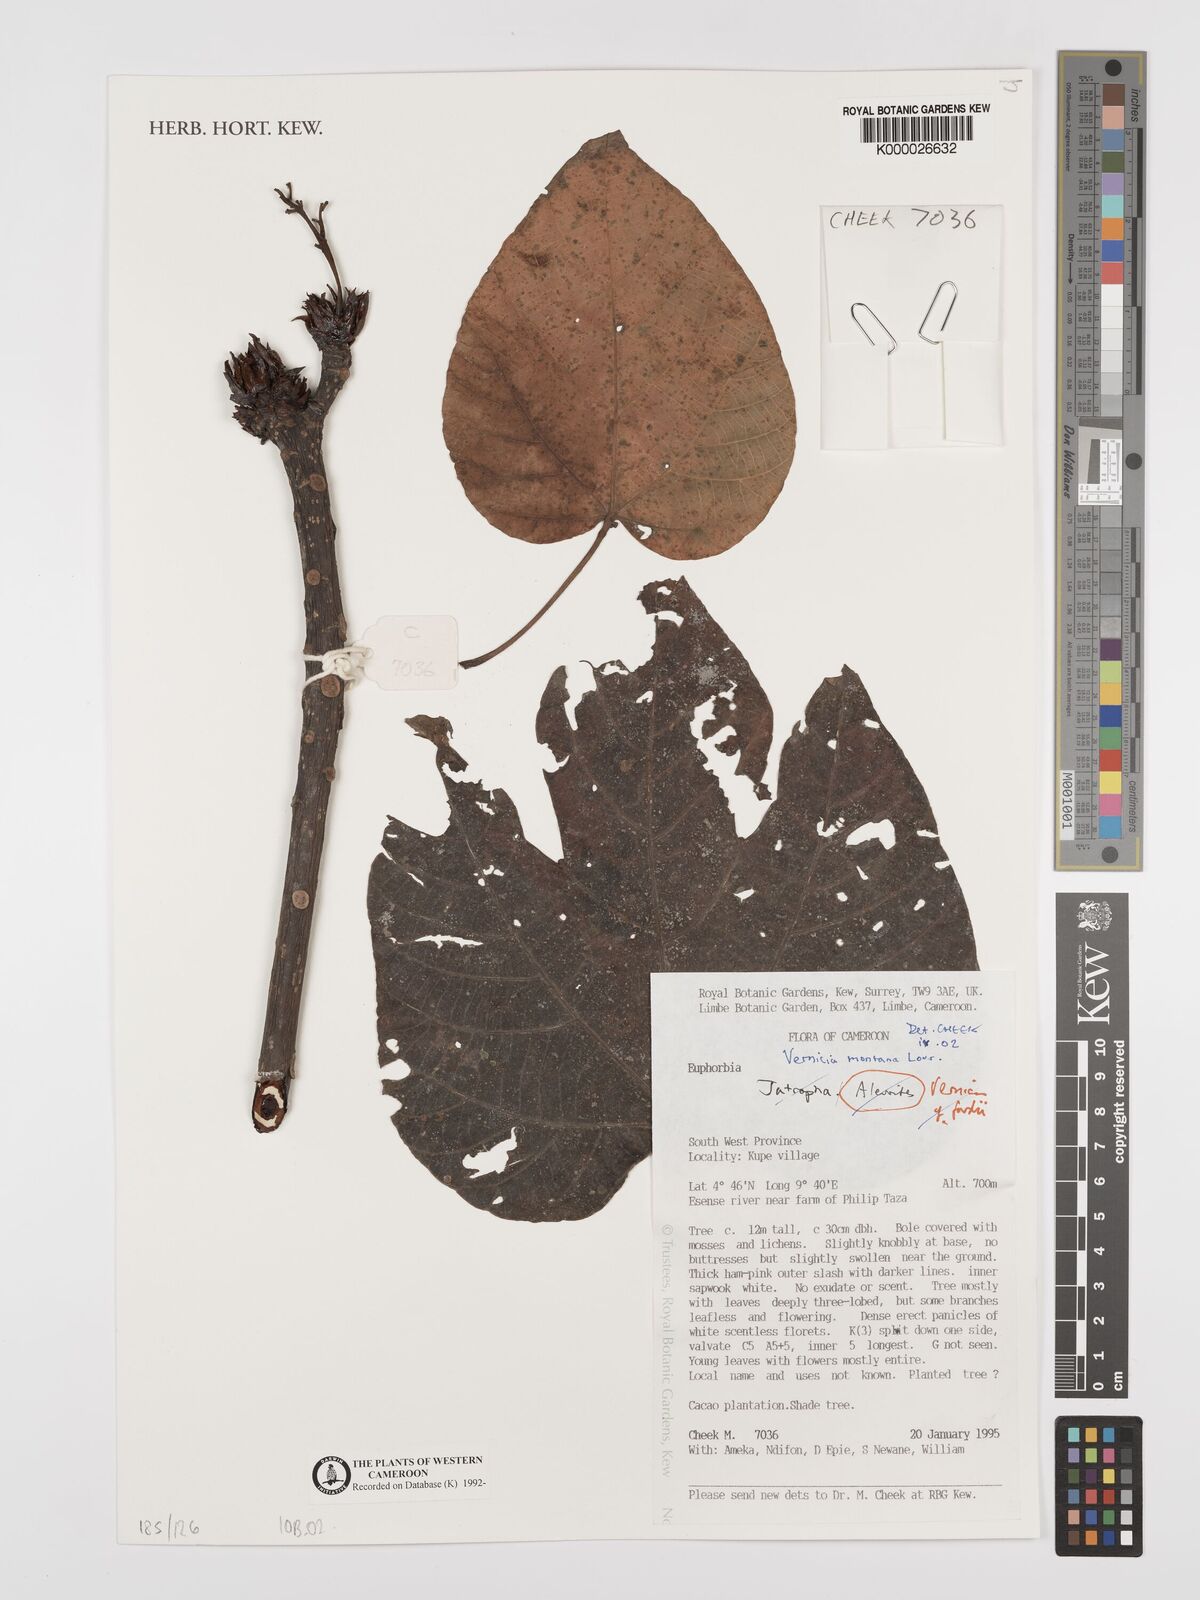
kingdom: Plantae
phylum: Tracheophyta
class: Magnoliopsida
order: Malpighiales
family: Euphorbiaceae
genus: Vernicia
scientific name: Vernicia montana
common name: Mu oil tree
